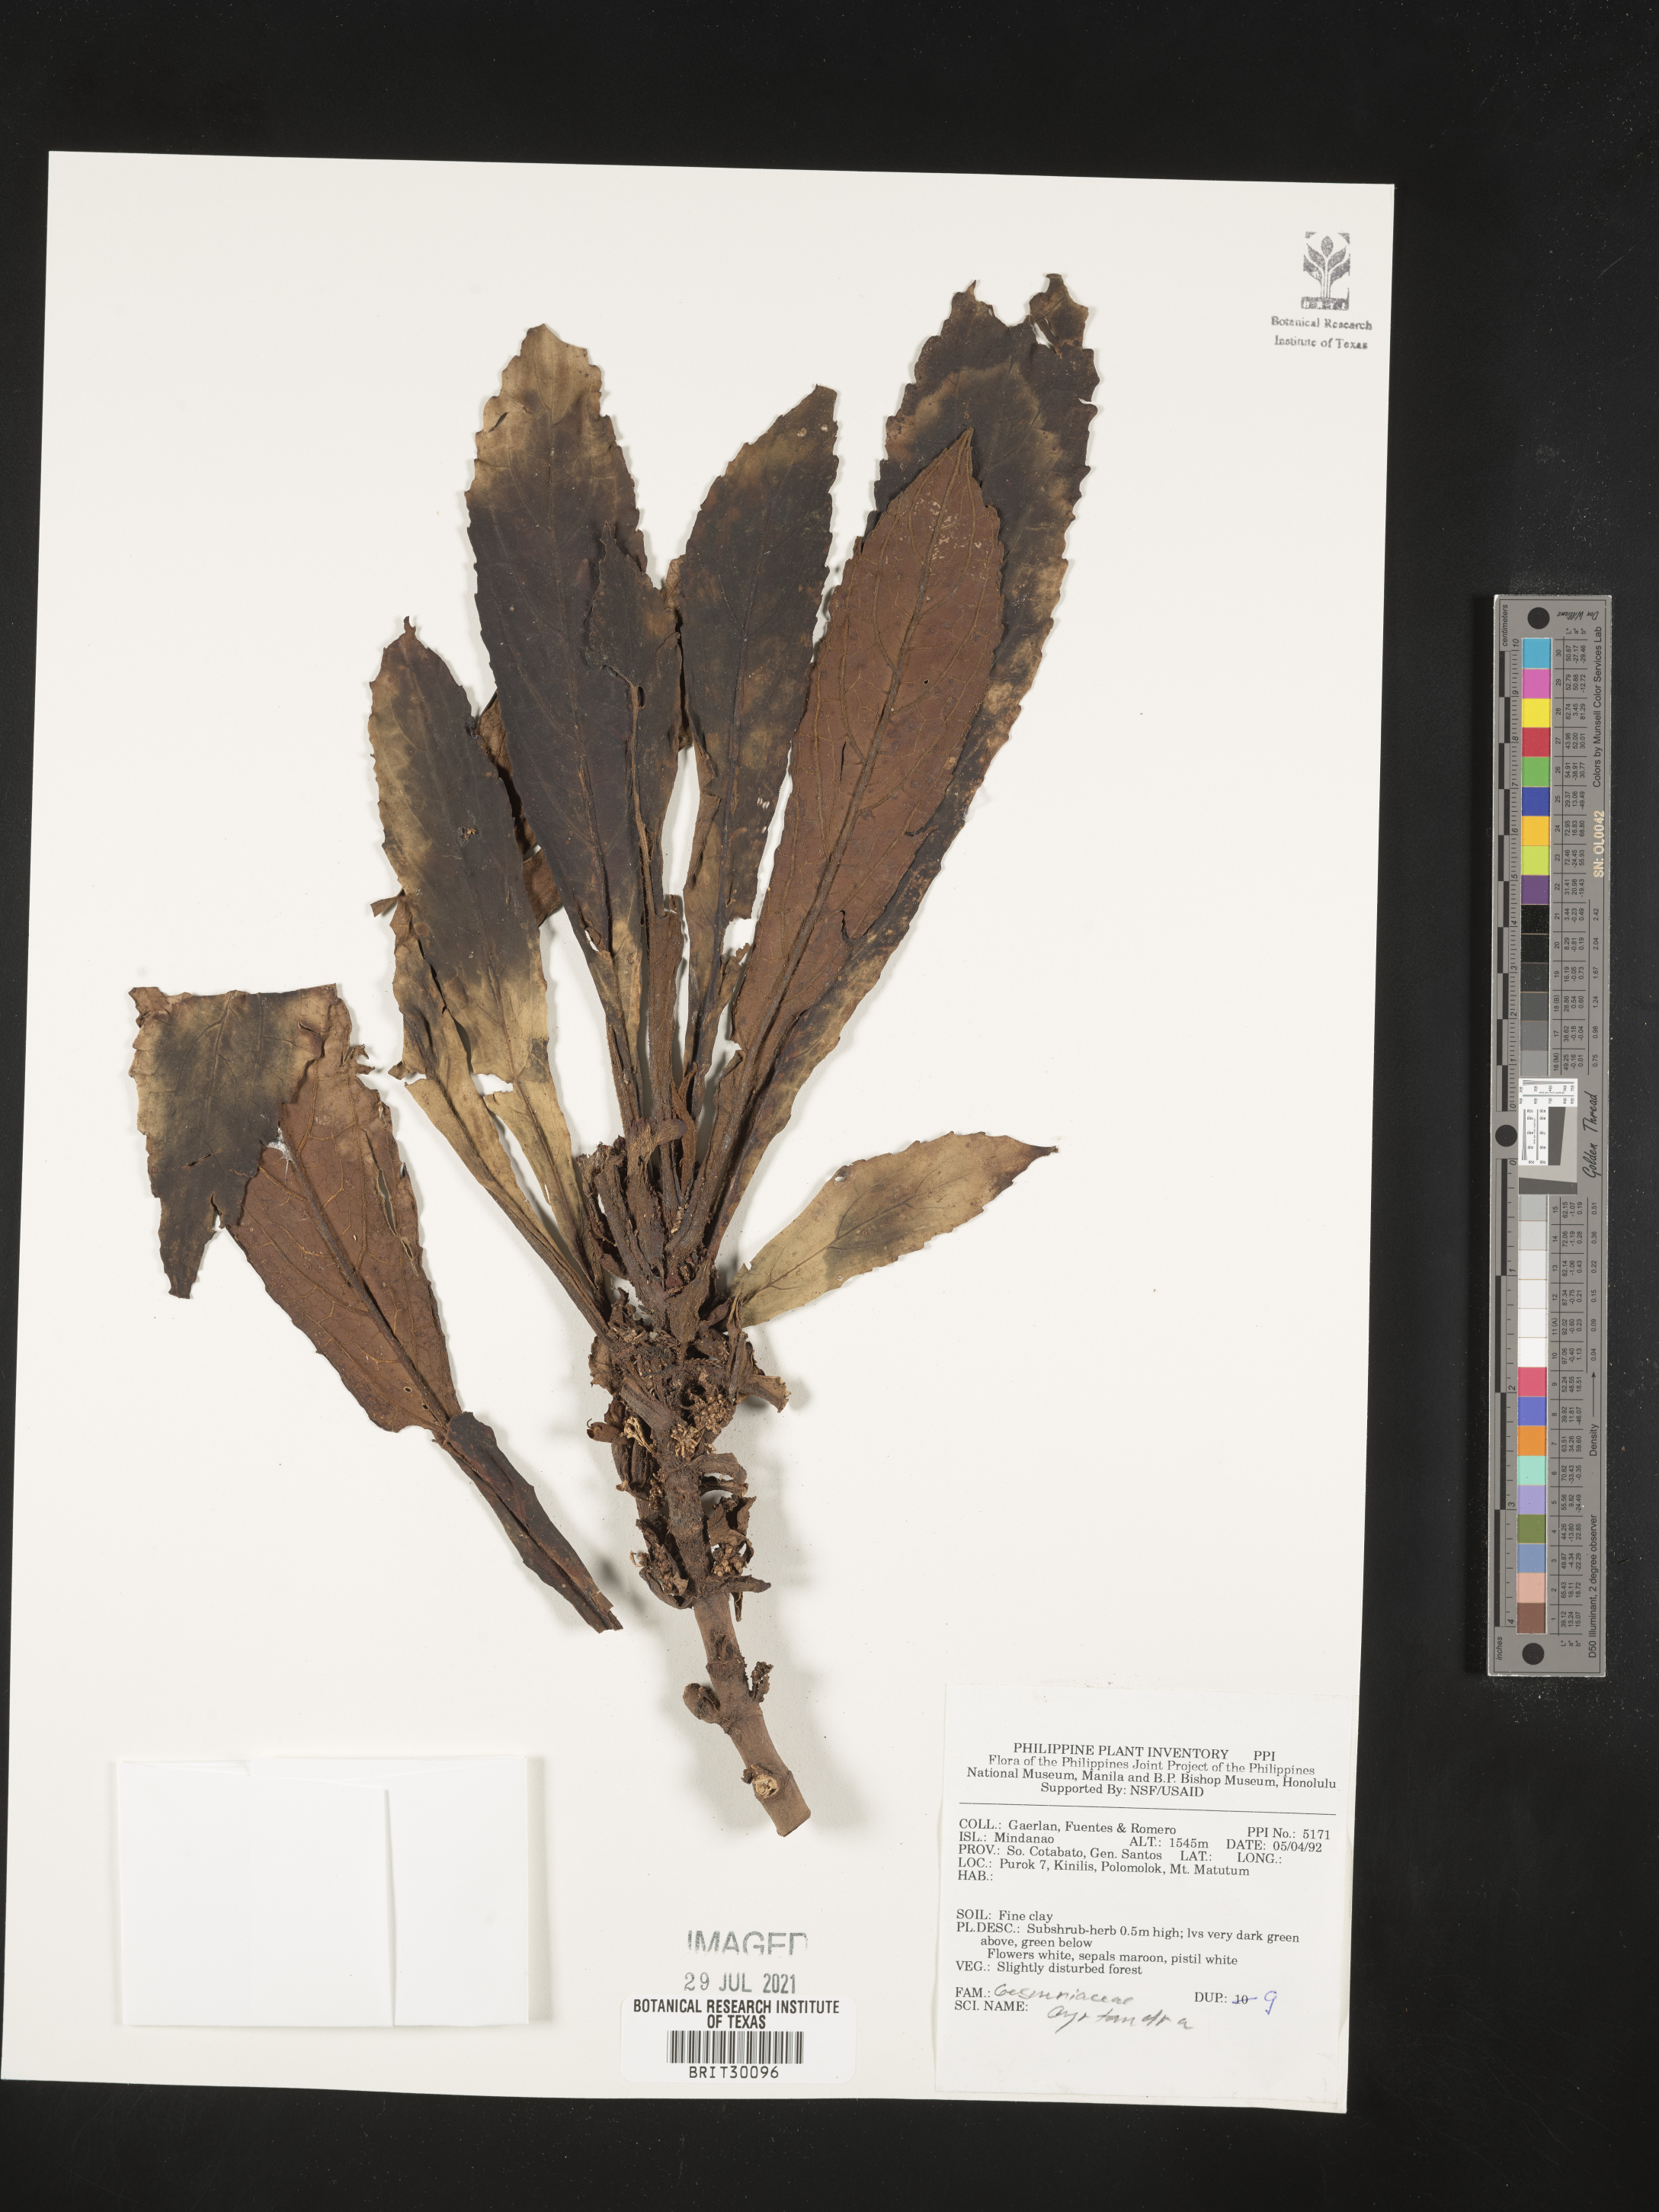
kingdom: Plantae
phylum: Tracheophyta
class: Magnoliopsida
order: Lamiales
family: Gesneriaceae
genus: Cyrtandra
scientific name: Cyrtandra
